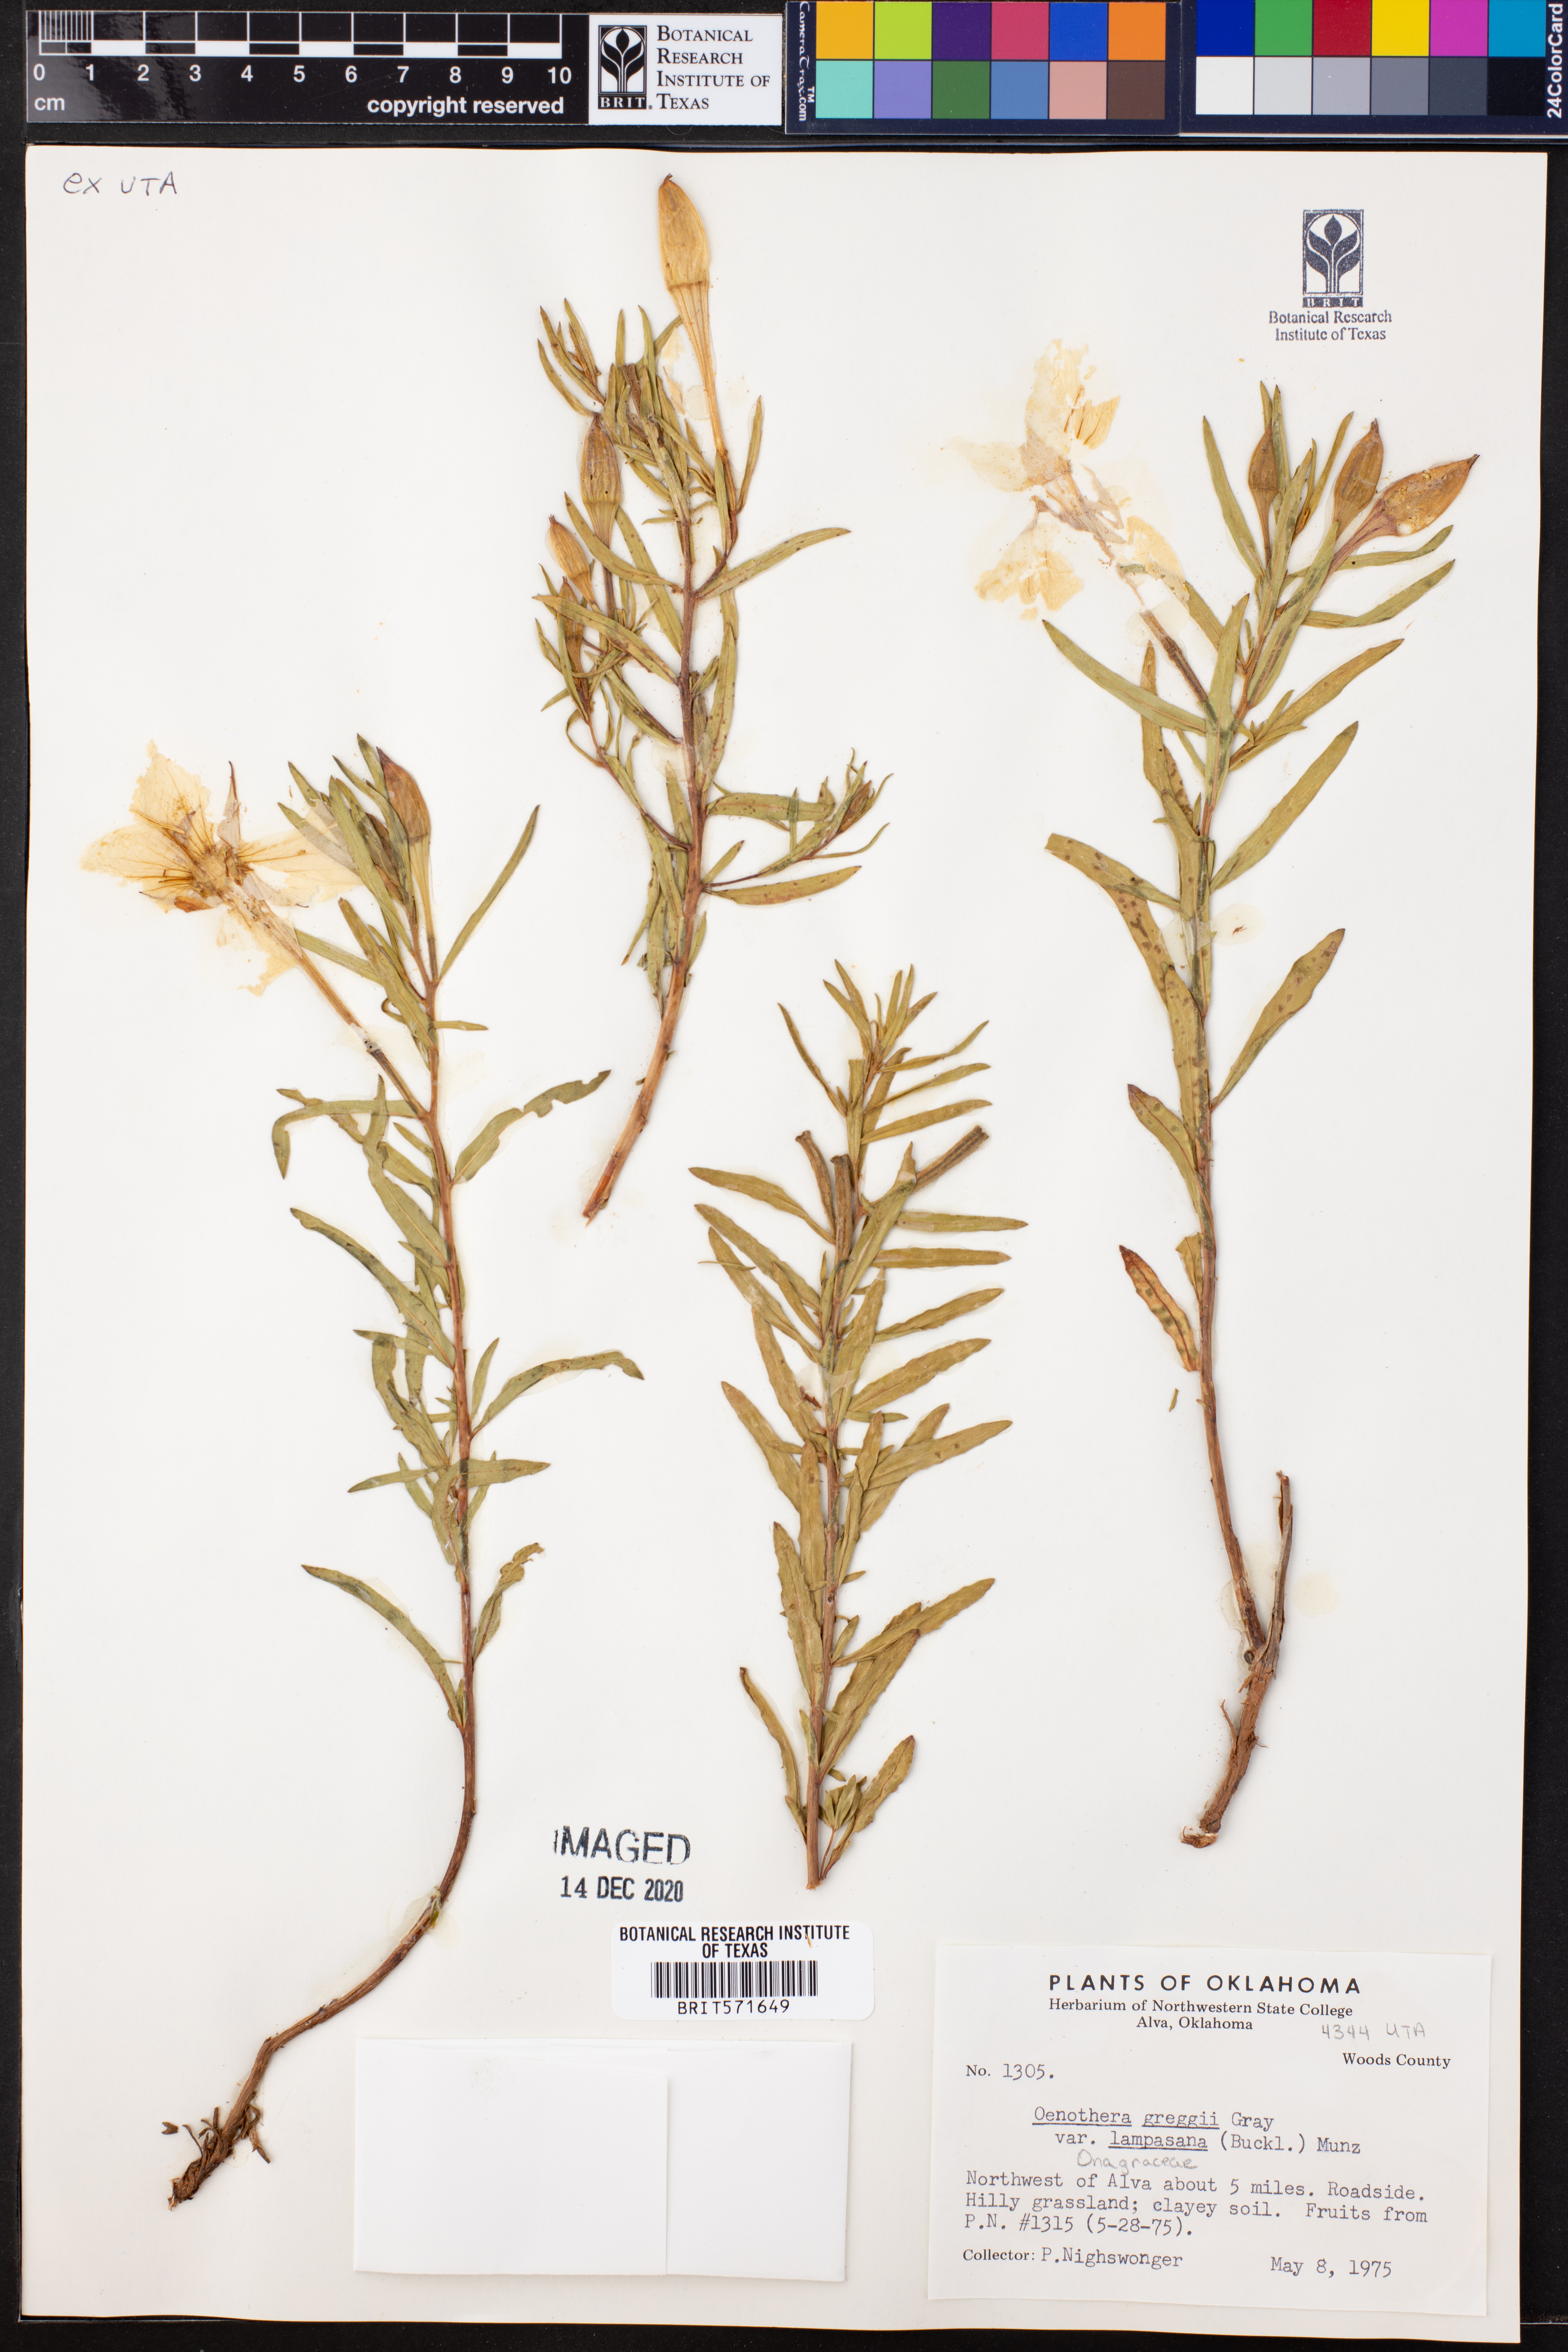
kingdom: Plantae
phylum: Tracheophyta
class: Magnoliopsida
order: Myrtales
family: Onagraceae
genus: Oenothera
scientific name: Oenothera hartwegii
